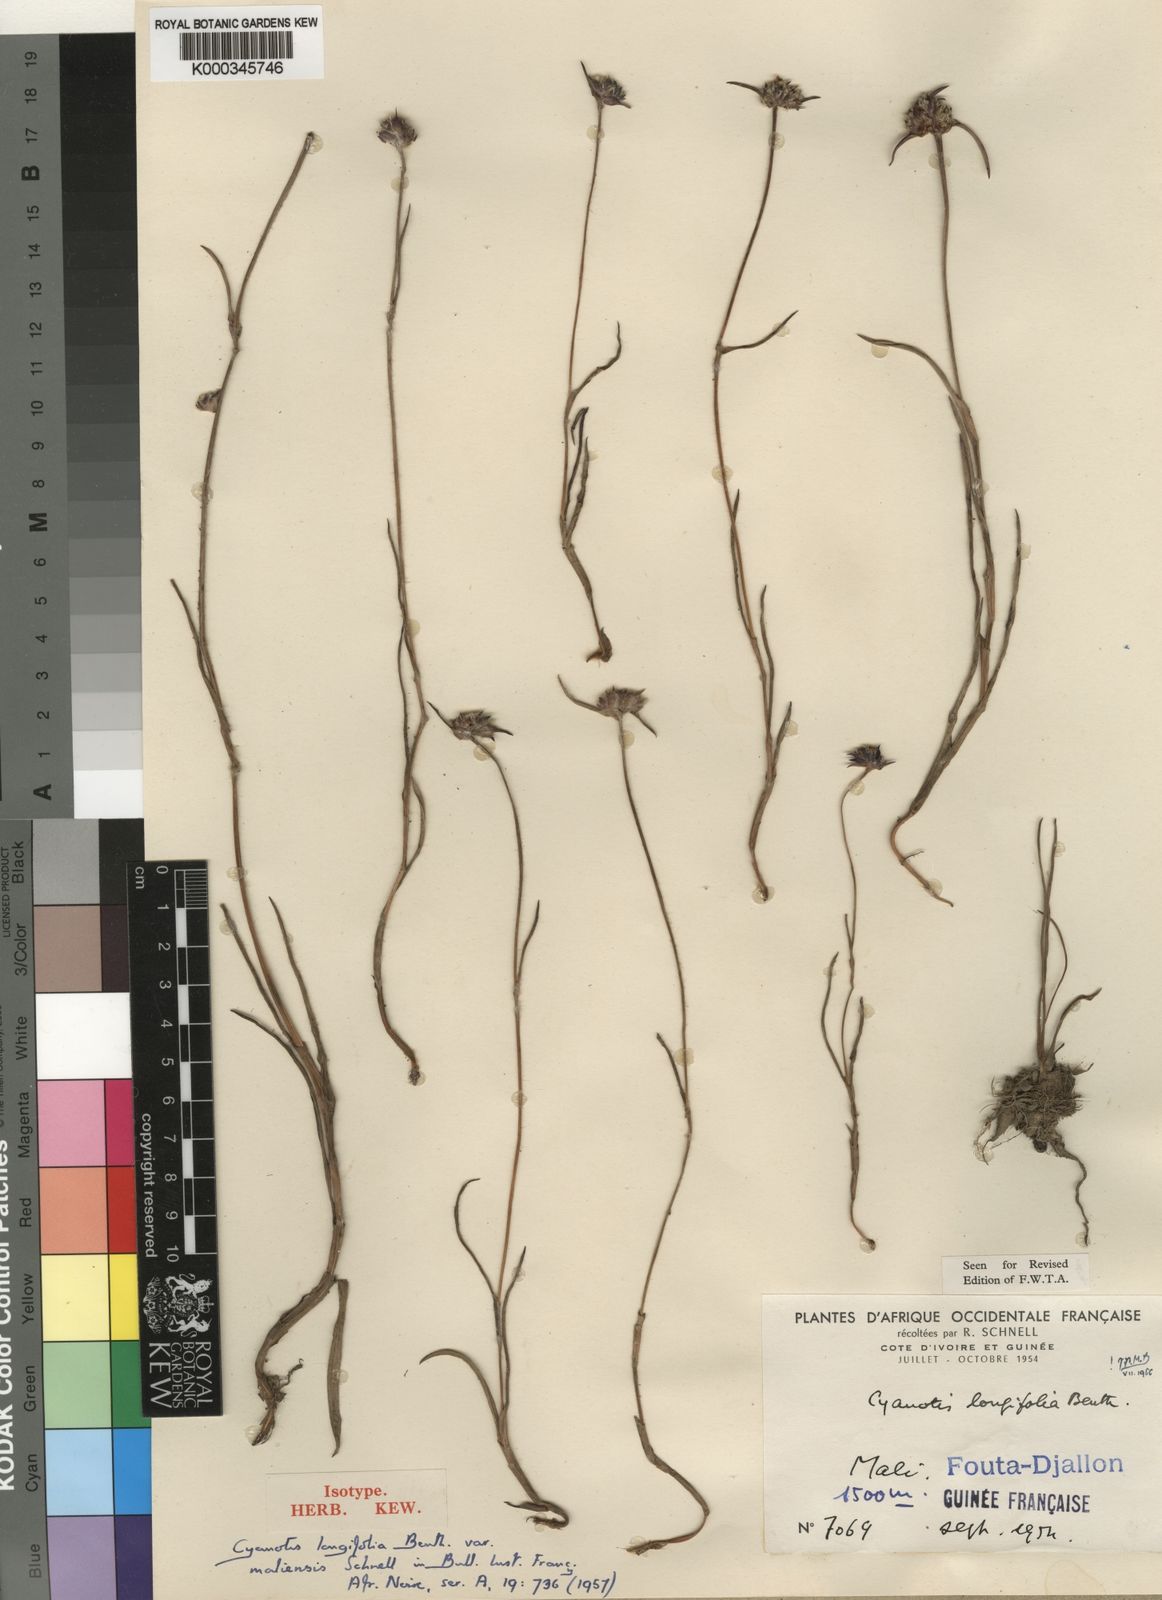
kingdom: Plantae
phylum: Tracheophyta
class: Liliopsida
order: Commelinales
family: Commelinaceae
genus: Cyanotis
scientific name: Cyanotis longifolia
